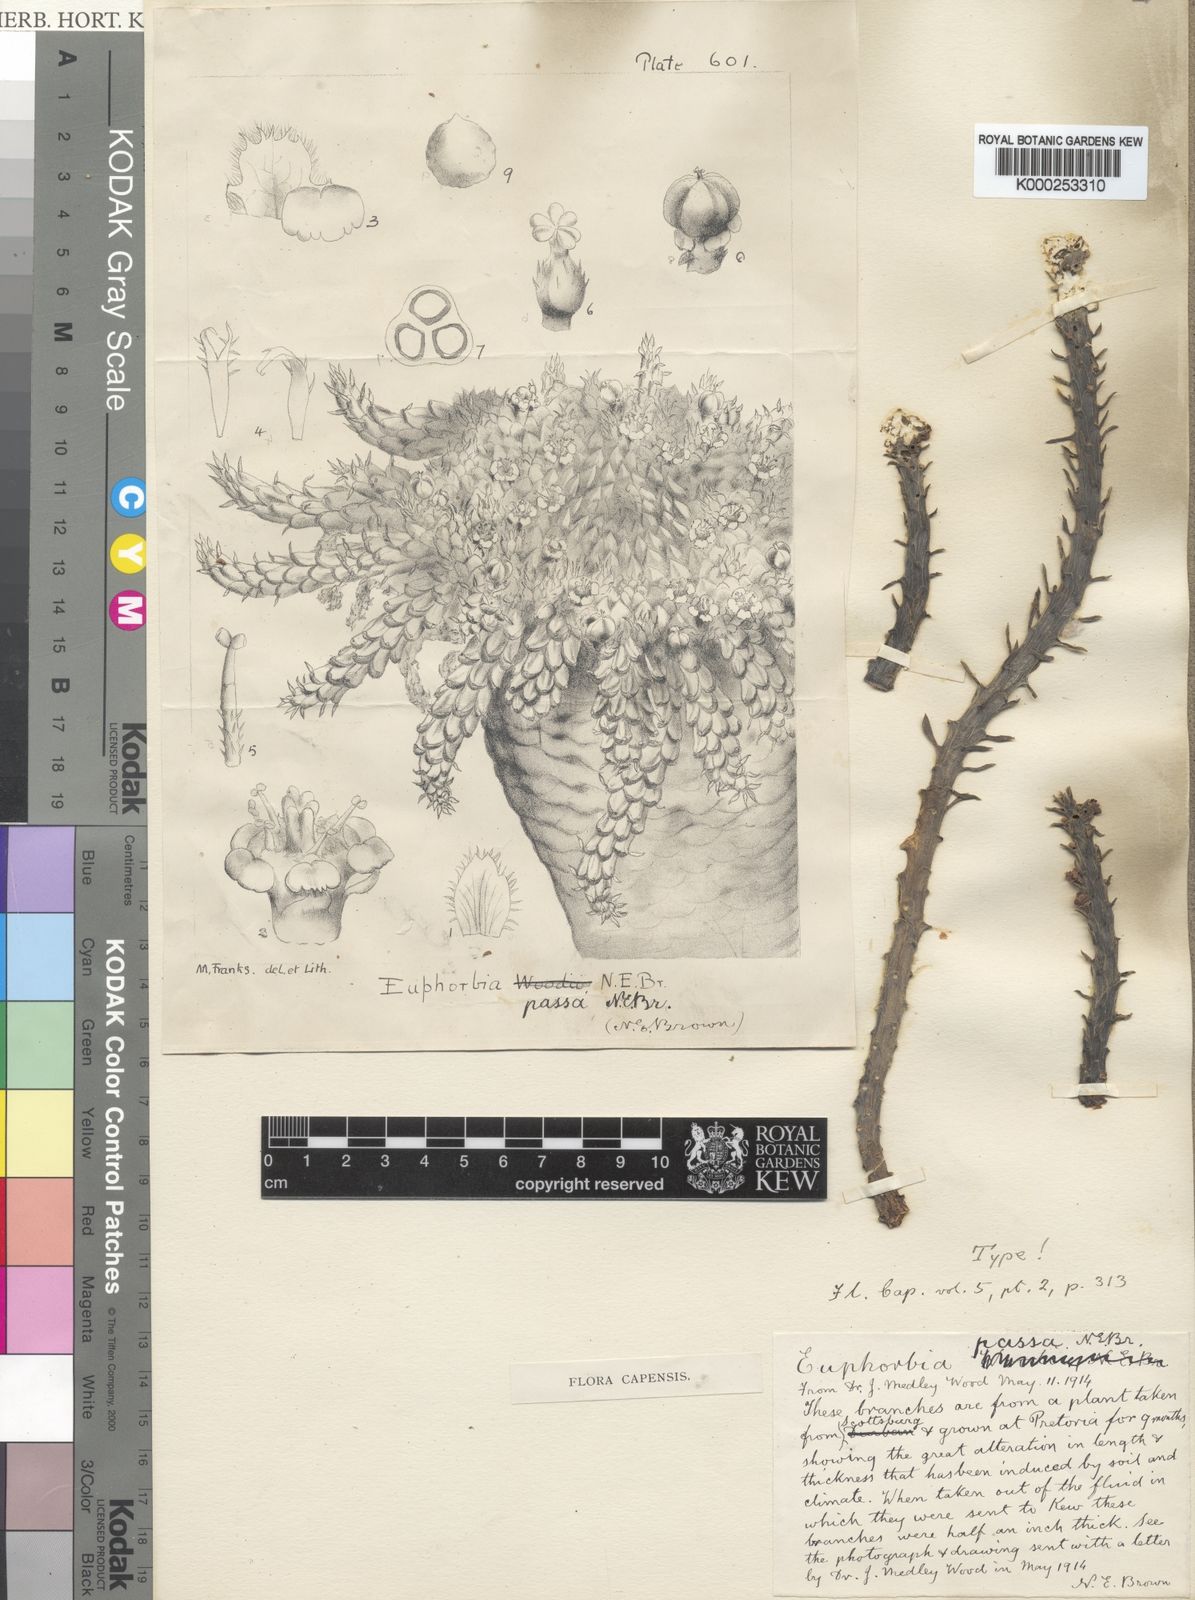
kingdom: Plantae
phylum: Tracheophyta
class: Magnoliopsida
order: Malpighiales
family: Euphorbiaceae
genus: Euphorbia
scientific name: Euphorbia flanaganii
